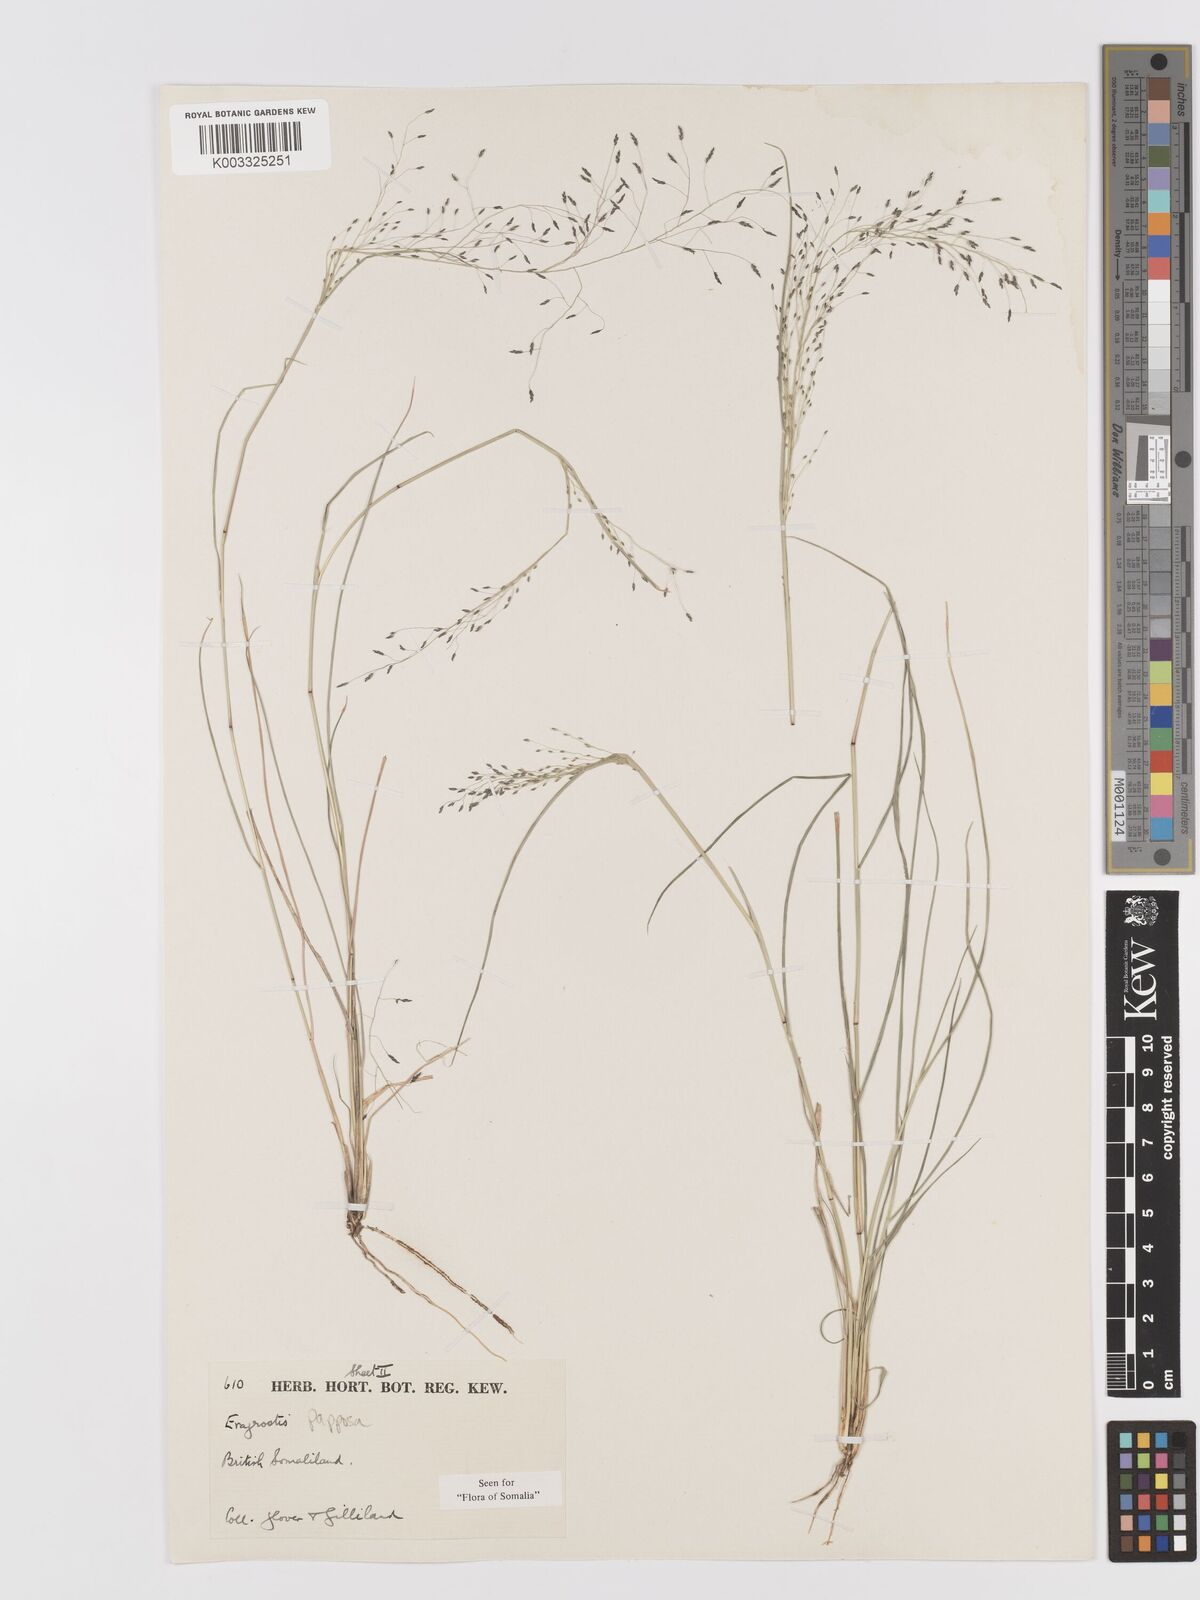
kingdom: Plantae
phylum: Tracheophyta
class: Liliopsida
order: Poales
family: Poaceae
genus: Eragrostis
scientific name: Eragrostis papposa
